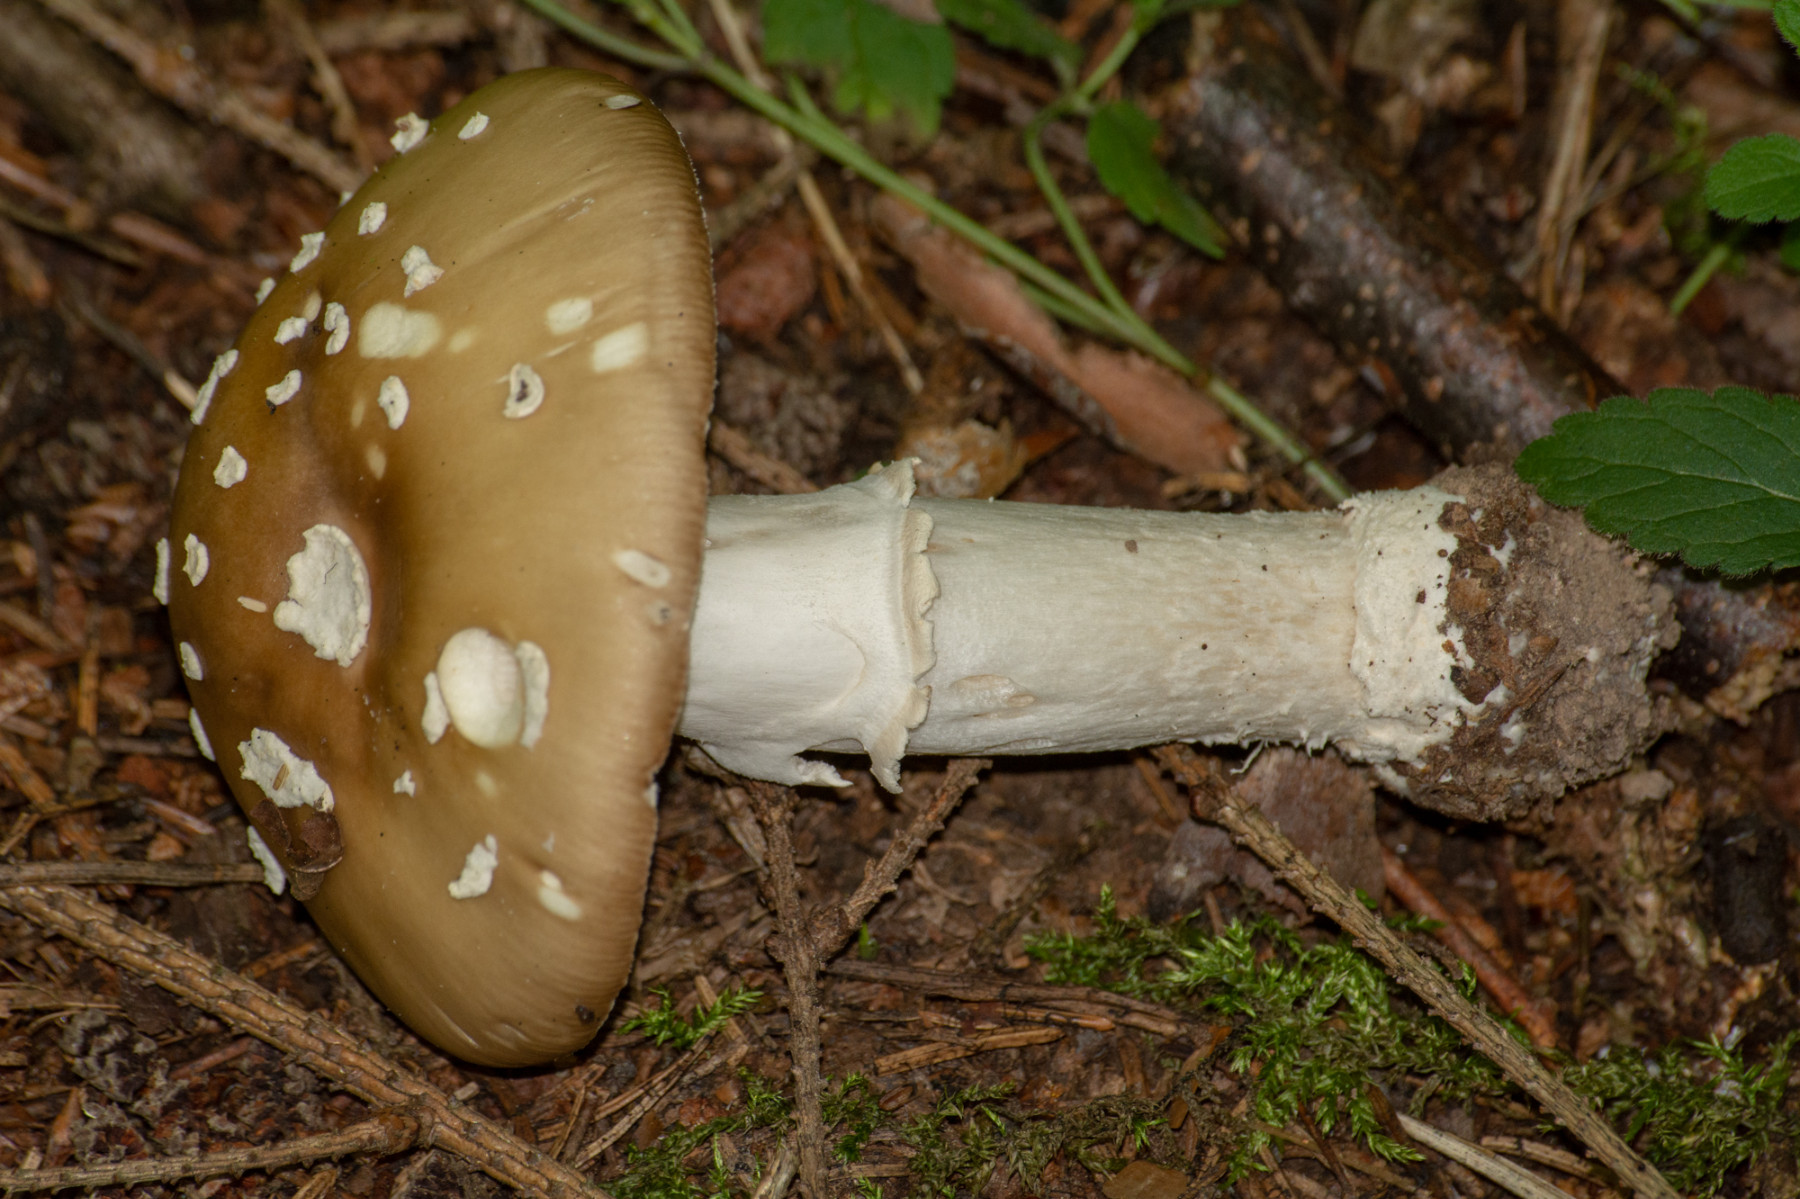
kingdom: Fungi
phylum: Basidiomycota
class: Agaricomycetes
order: Agaricales
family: Amanitaceae
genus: Amanita
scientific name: Amanita pantherina
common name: panter-fluesvamp
